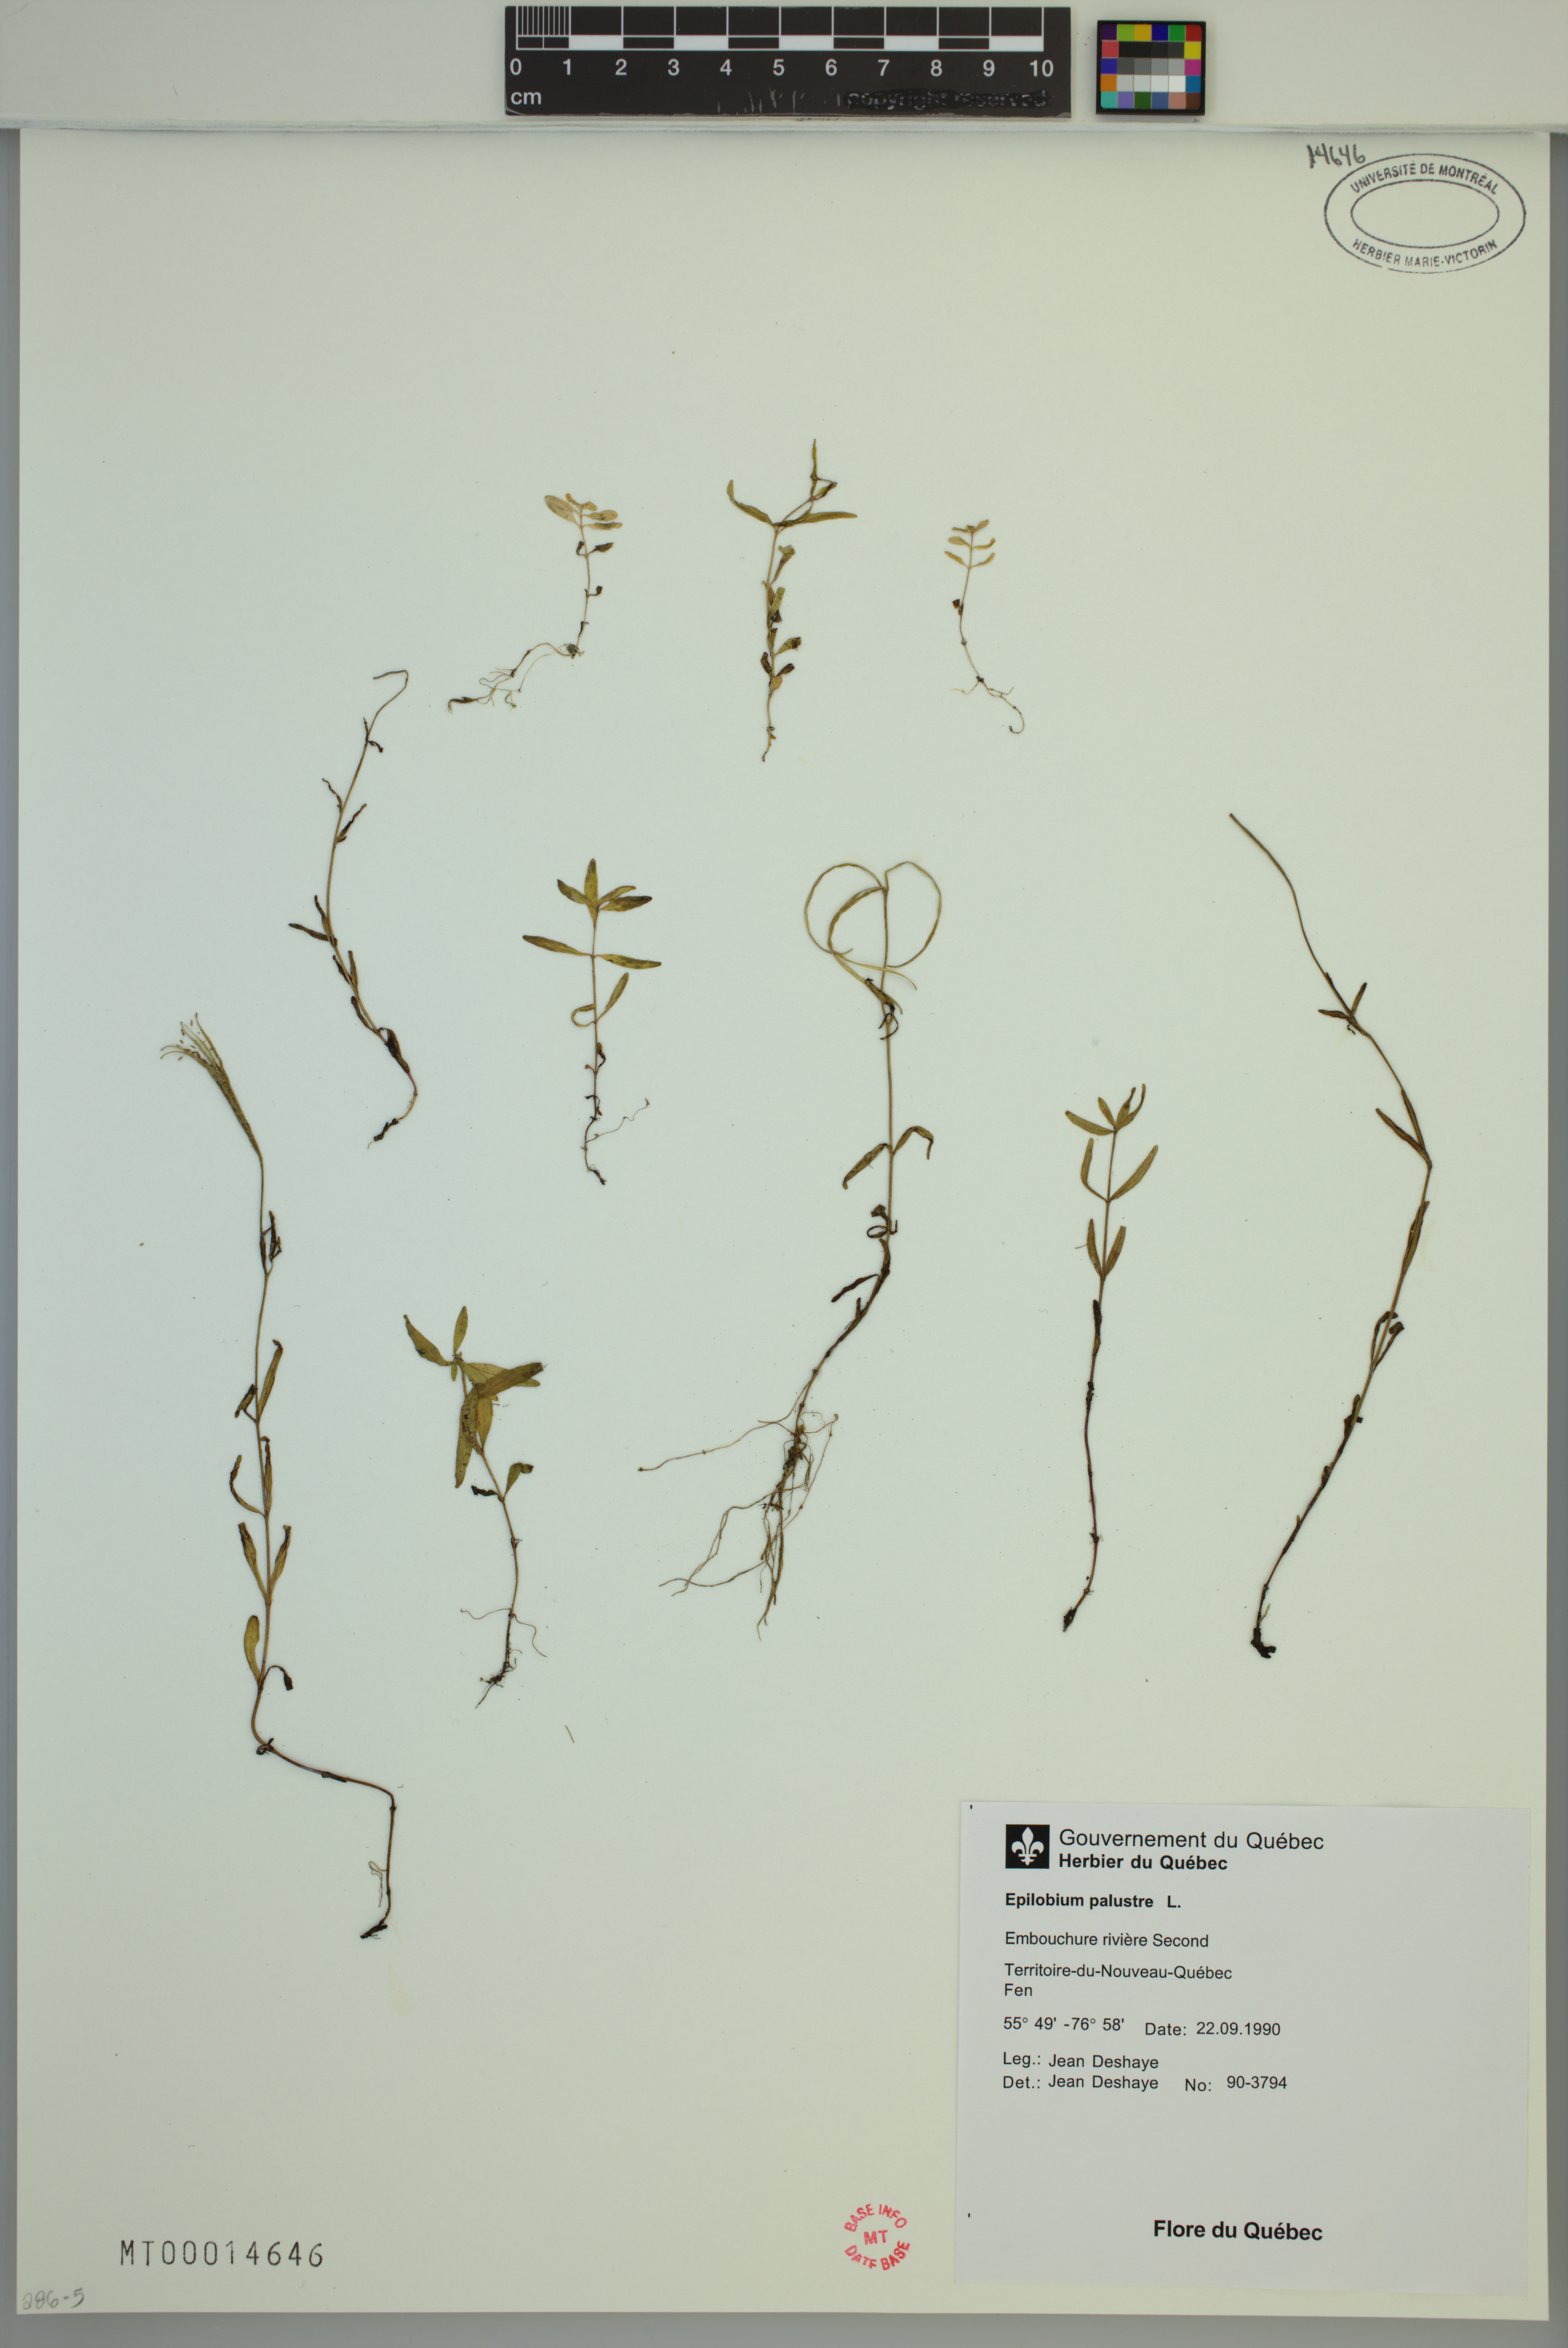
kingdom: Plantae
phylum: Tracheophyta
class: Magnoliopsida
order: Myrtales
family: Onagraceae
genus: Epilobium
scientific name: Epilobium palustre
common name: Marsh willowherb
